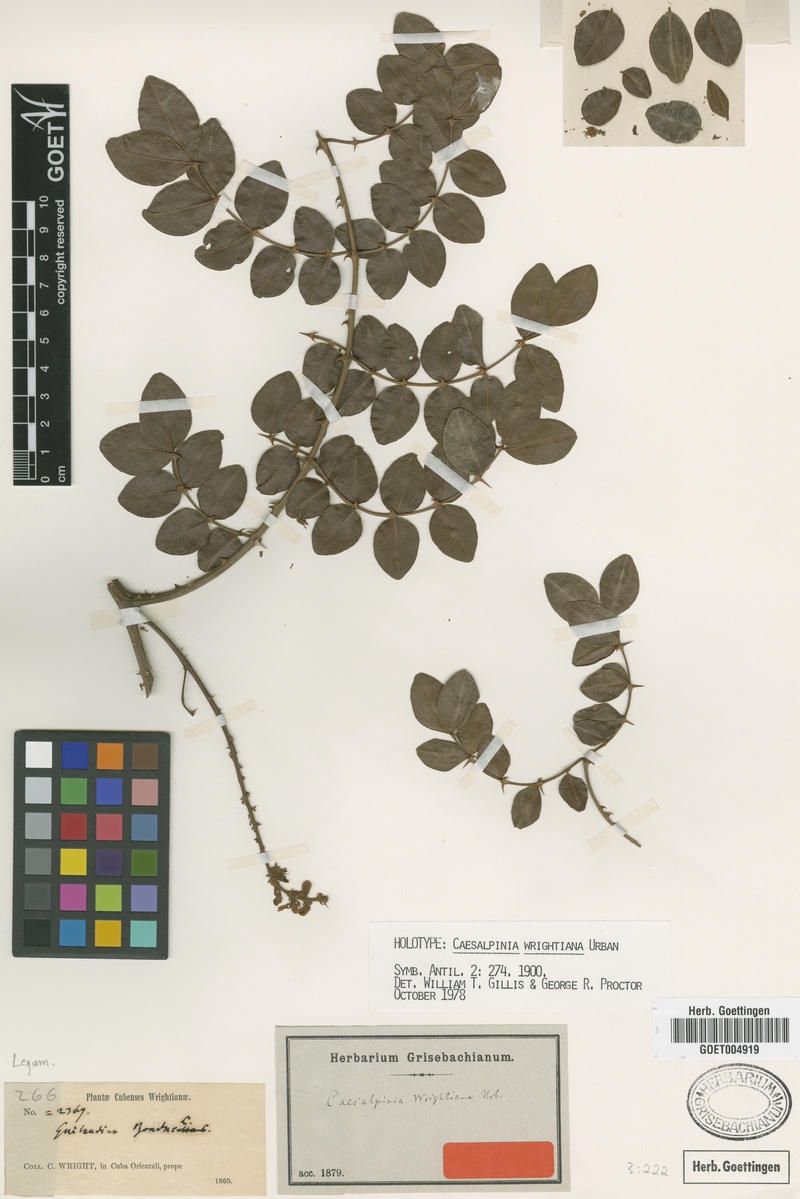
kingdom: Plantae
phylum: Tracheophyta
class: Magnoliopsida
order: Fabales
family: Fabaceae
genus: Guilandina
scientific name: Guilandina wrightiana
